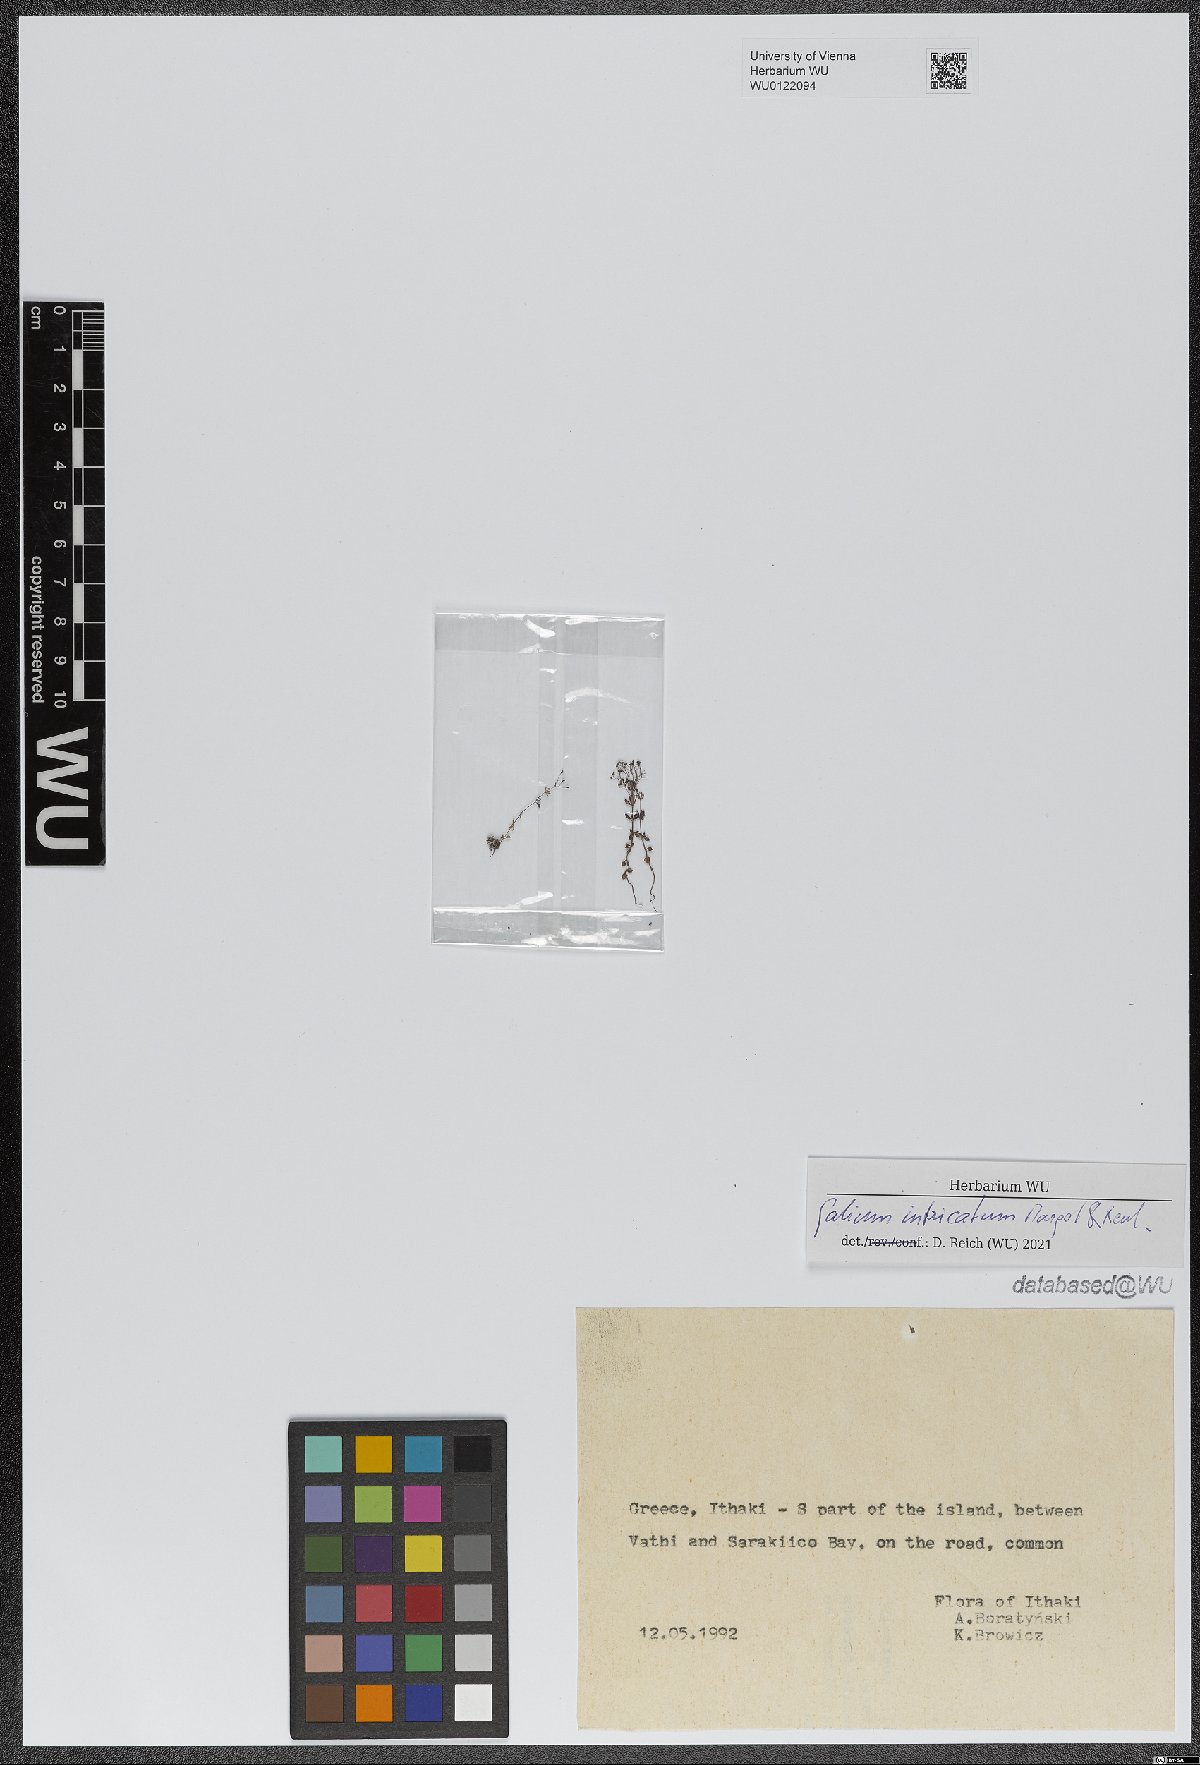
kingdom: Plantae
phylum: Tracheophyta
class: Magnoliopsida
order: Gentianales
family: Rubiaceae
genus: Galium
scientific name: Galium intricatum
